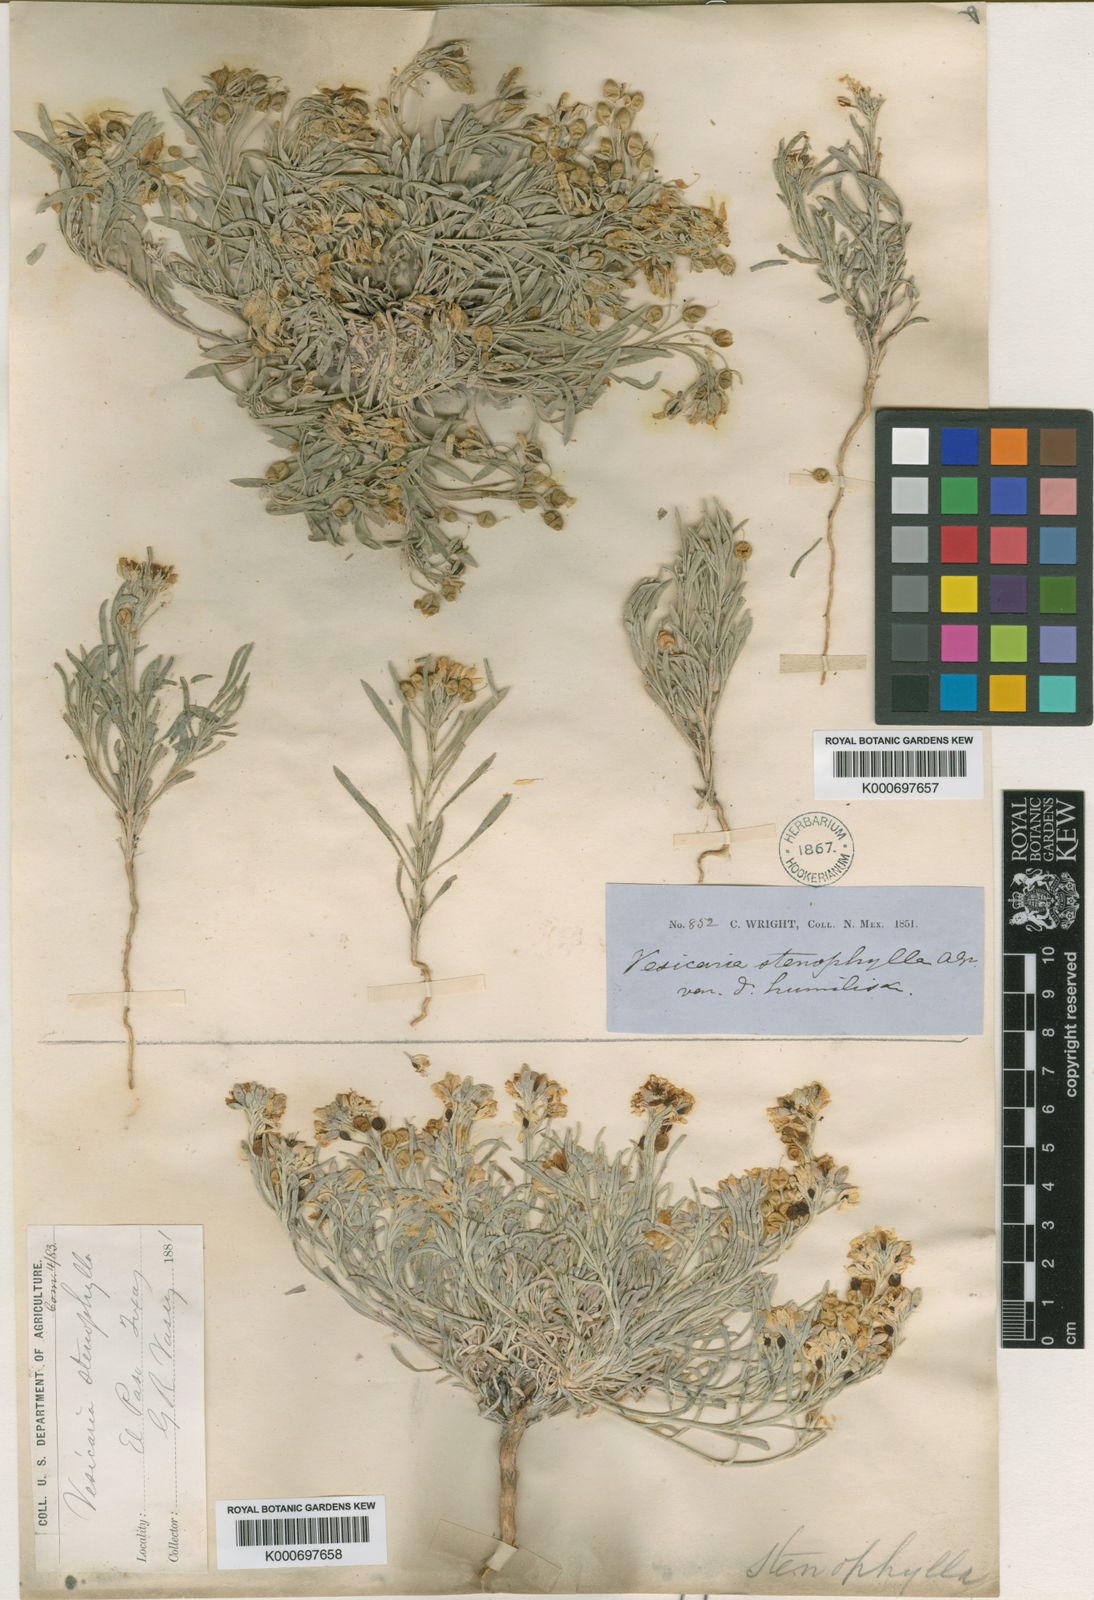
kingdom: Plantae
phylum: Tracheophyta
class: Magnoliopsida
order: Brassicales
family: Brassicaceae
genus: Physaria
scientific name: Physaria fendleri
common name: Fendler's bladderpod
